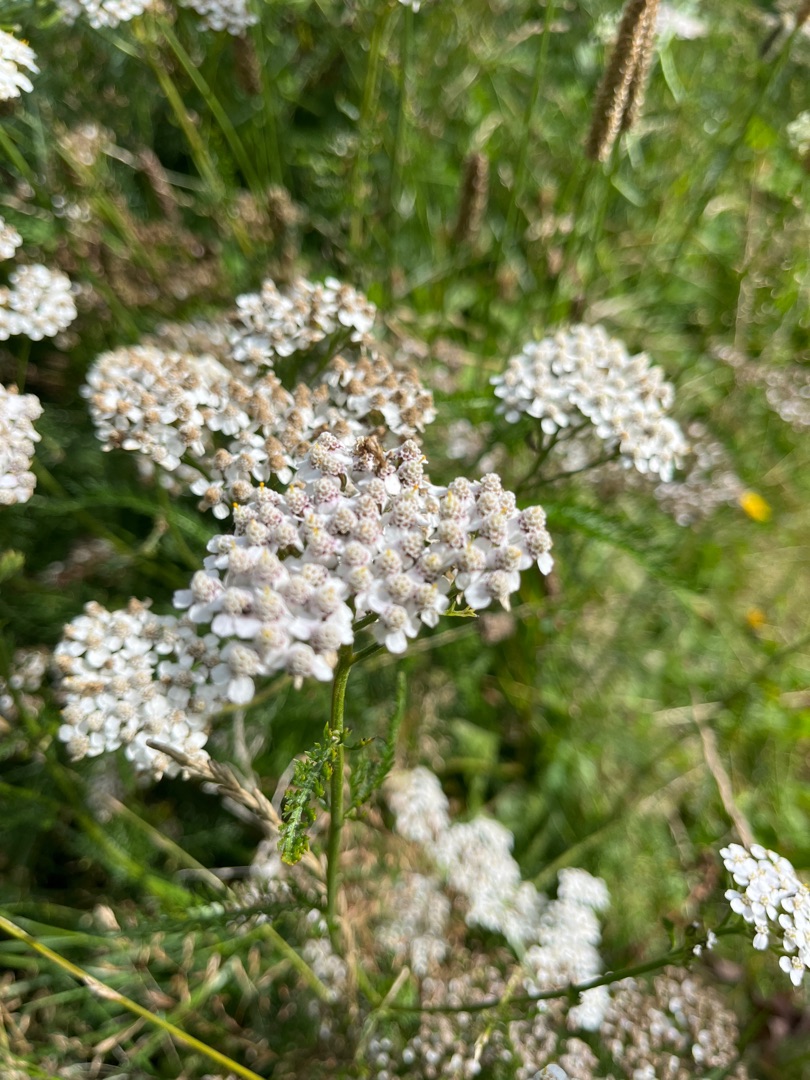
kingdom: Plantae
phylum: Tracheophyta
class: Magnoliopsida
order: Asterales
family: Asteraceae
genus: Achillea
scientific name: Achillea millefolium
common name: Almindelig røllike
